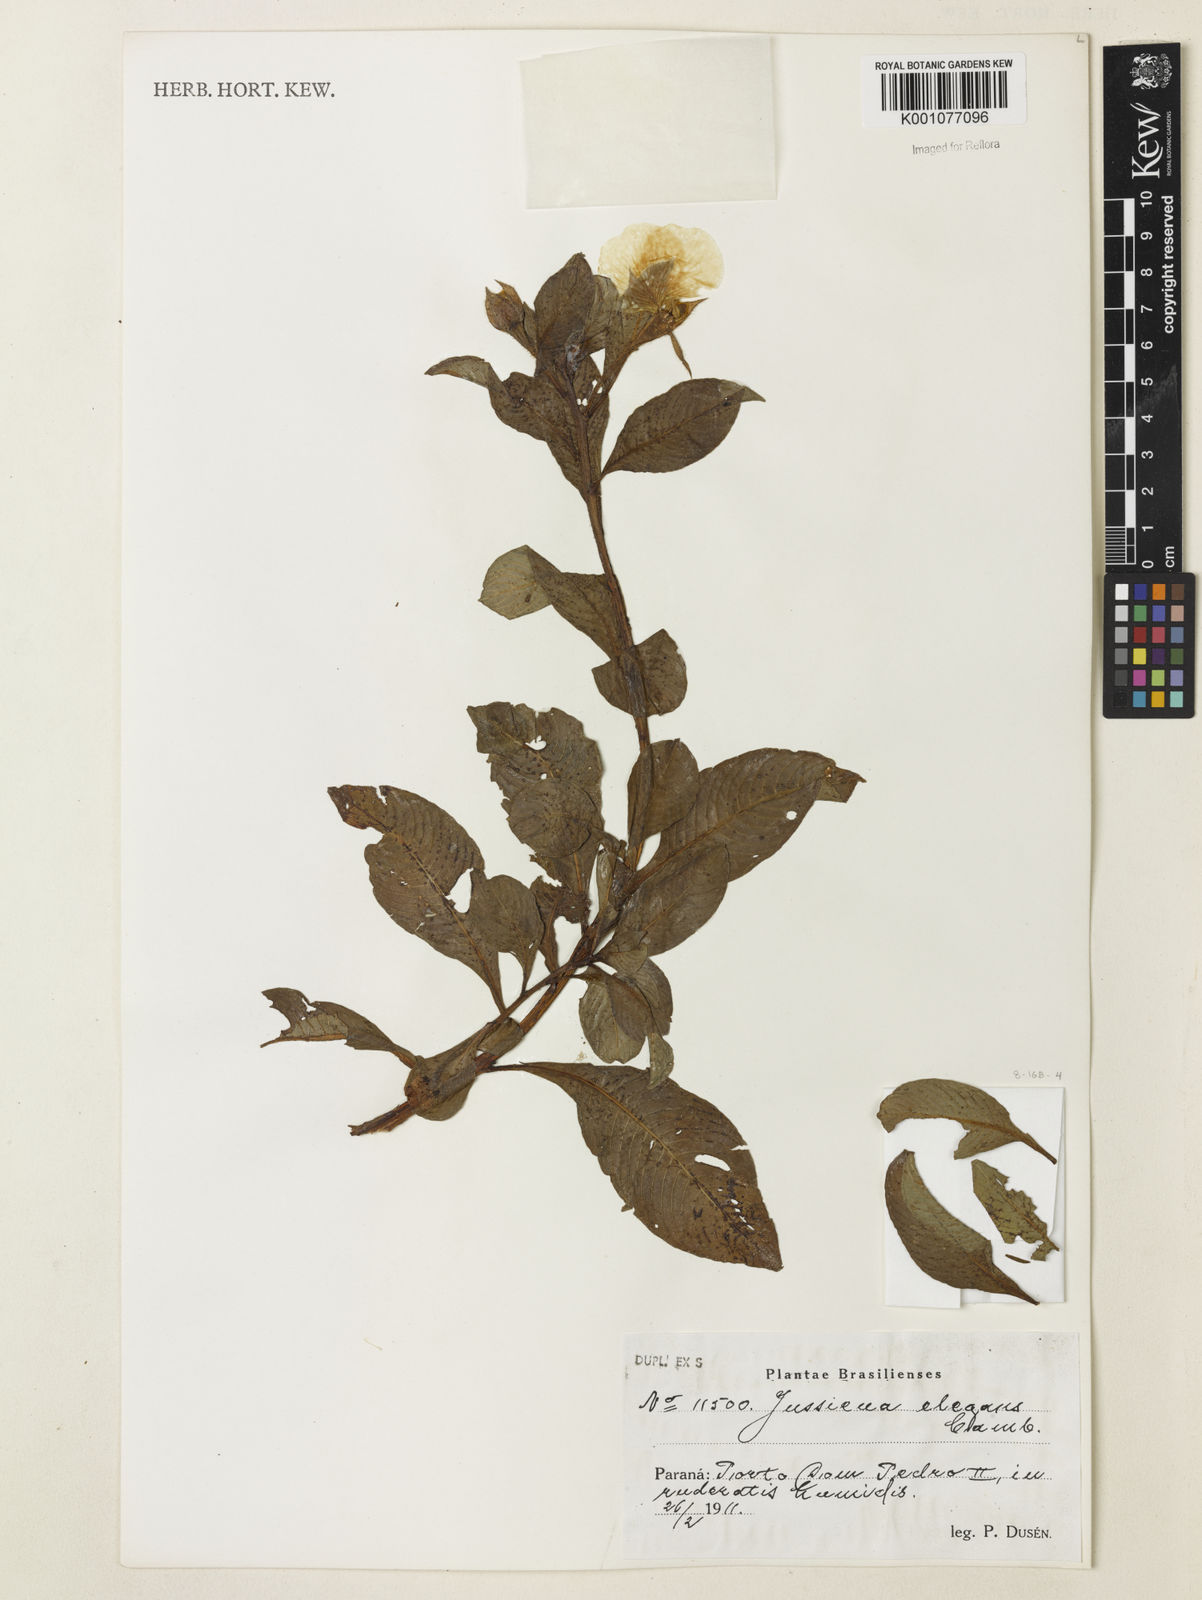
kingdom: Plantae
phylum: Tracheophyta
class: Magnoliopsida
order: Myrtales
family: Onagraceae
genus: Ludwigia
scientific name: Ludwigia elegans
